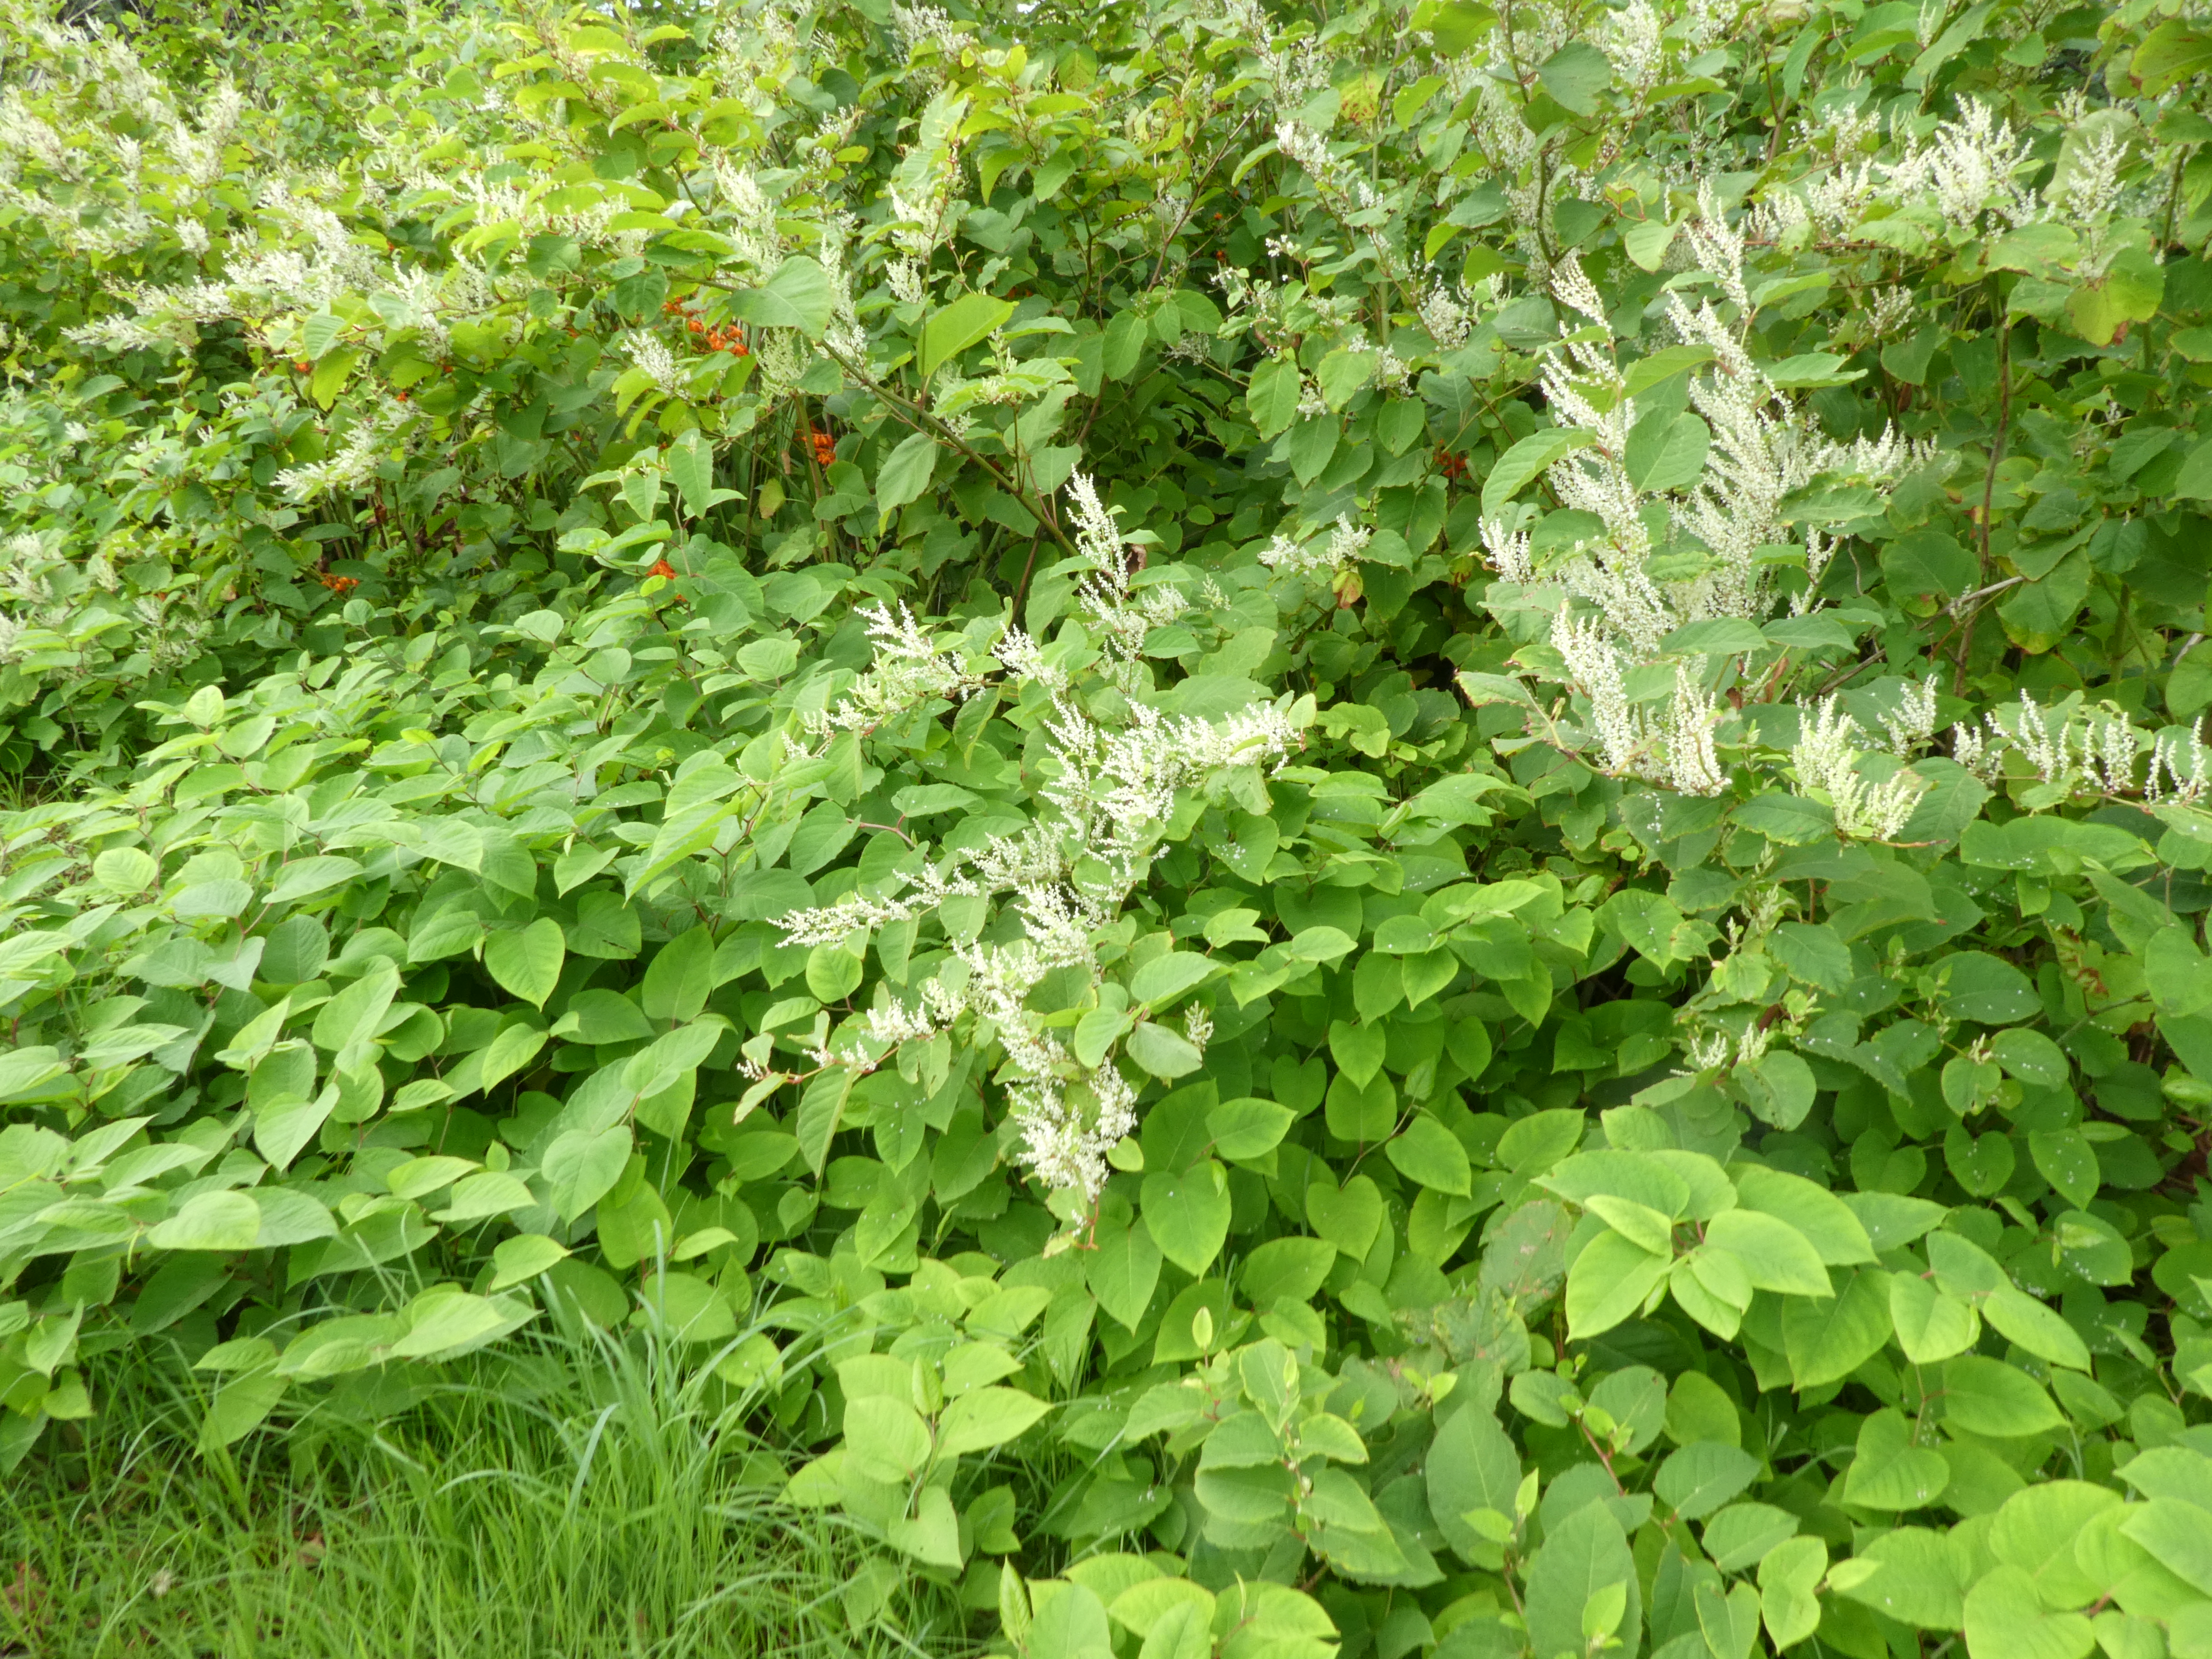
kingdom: Plantae
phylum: Tracheophyta
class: Magnoliopsida
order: Caryophyllales
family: Polygonaceae
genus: Reynoutria
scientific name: Reynoutria japonica
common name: Japanese knotweed
